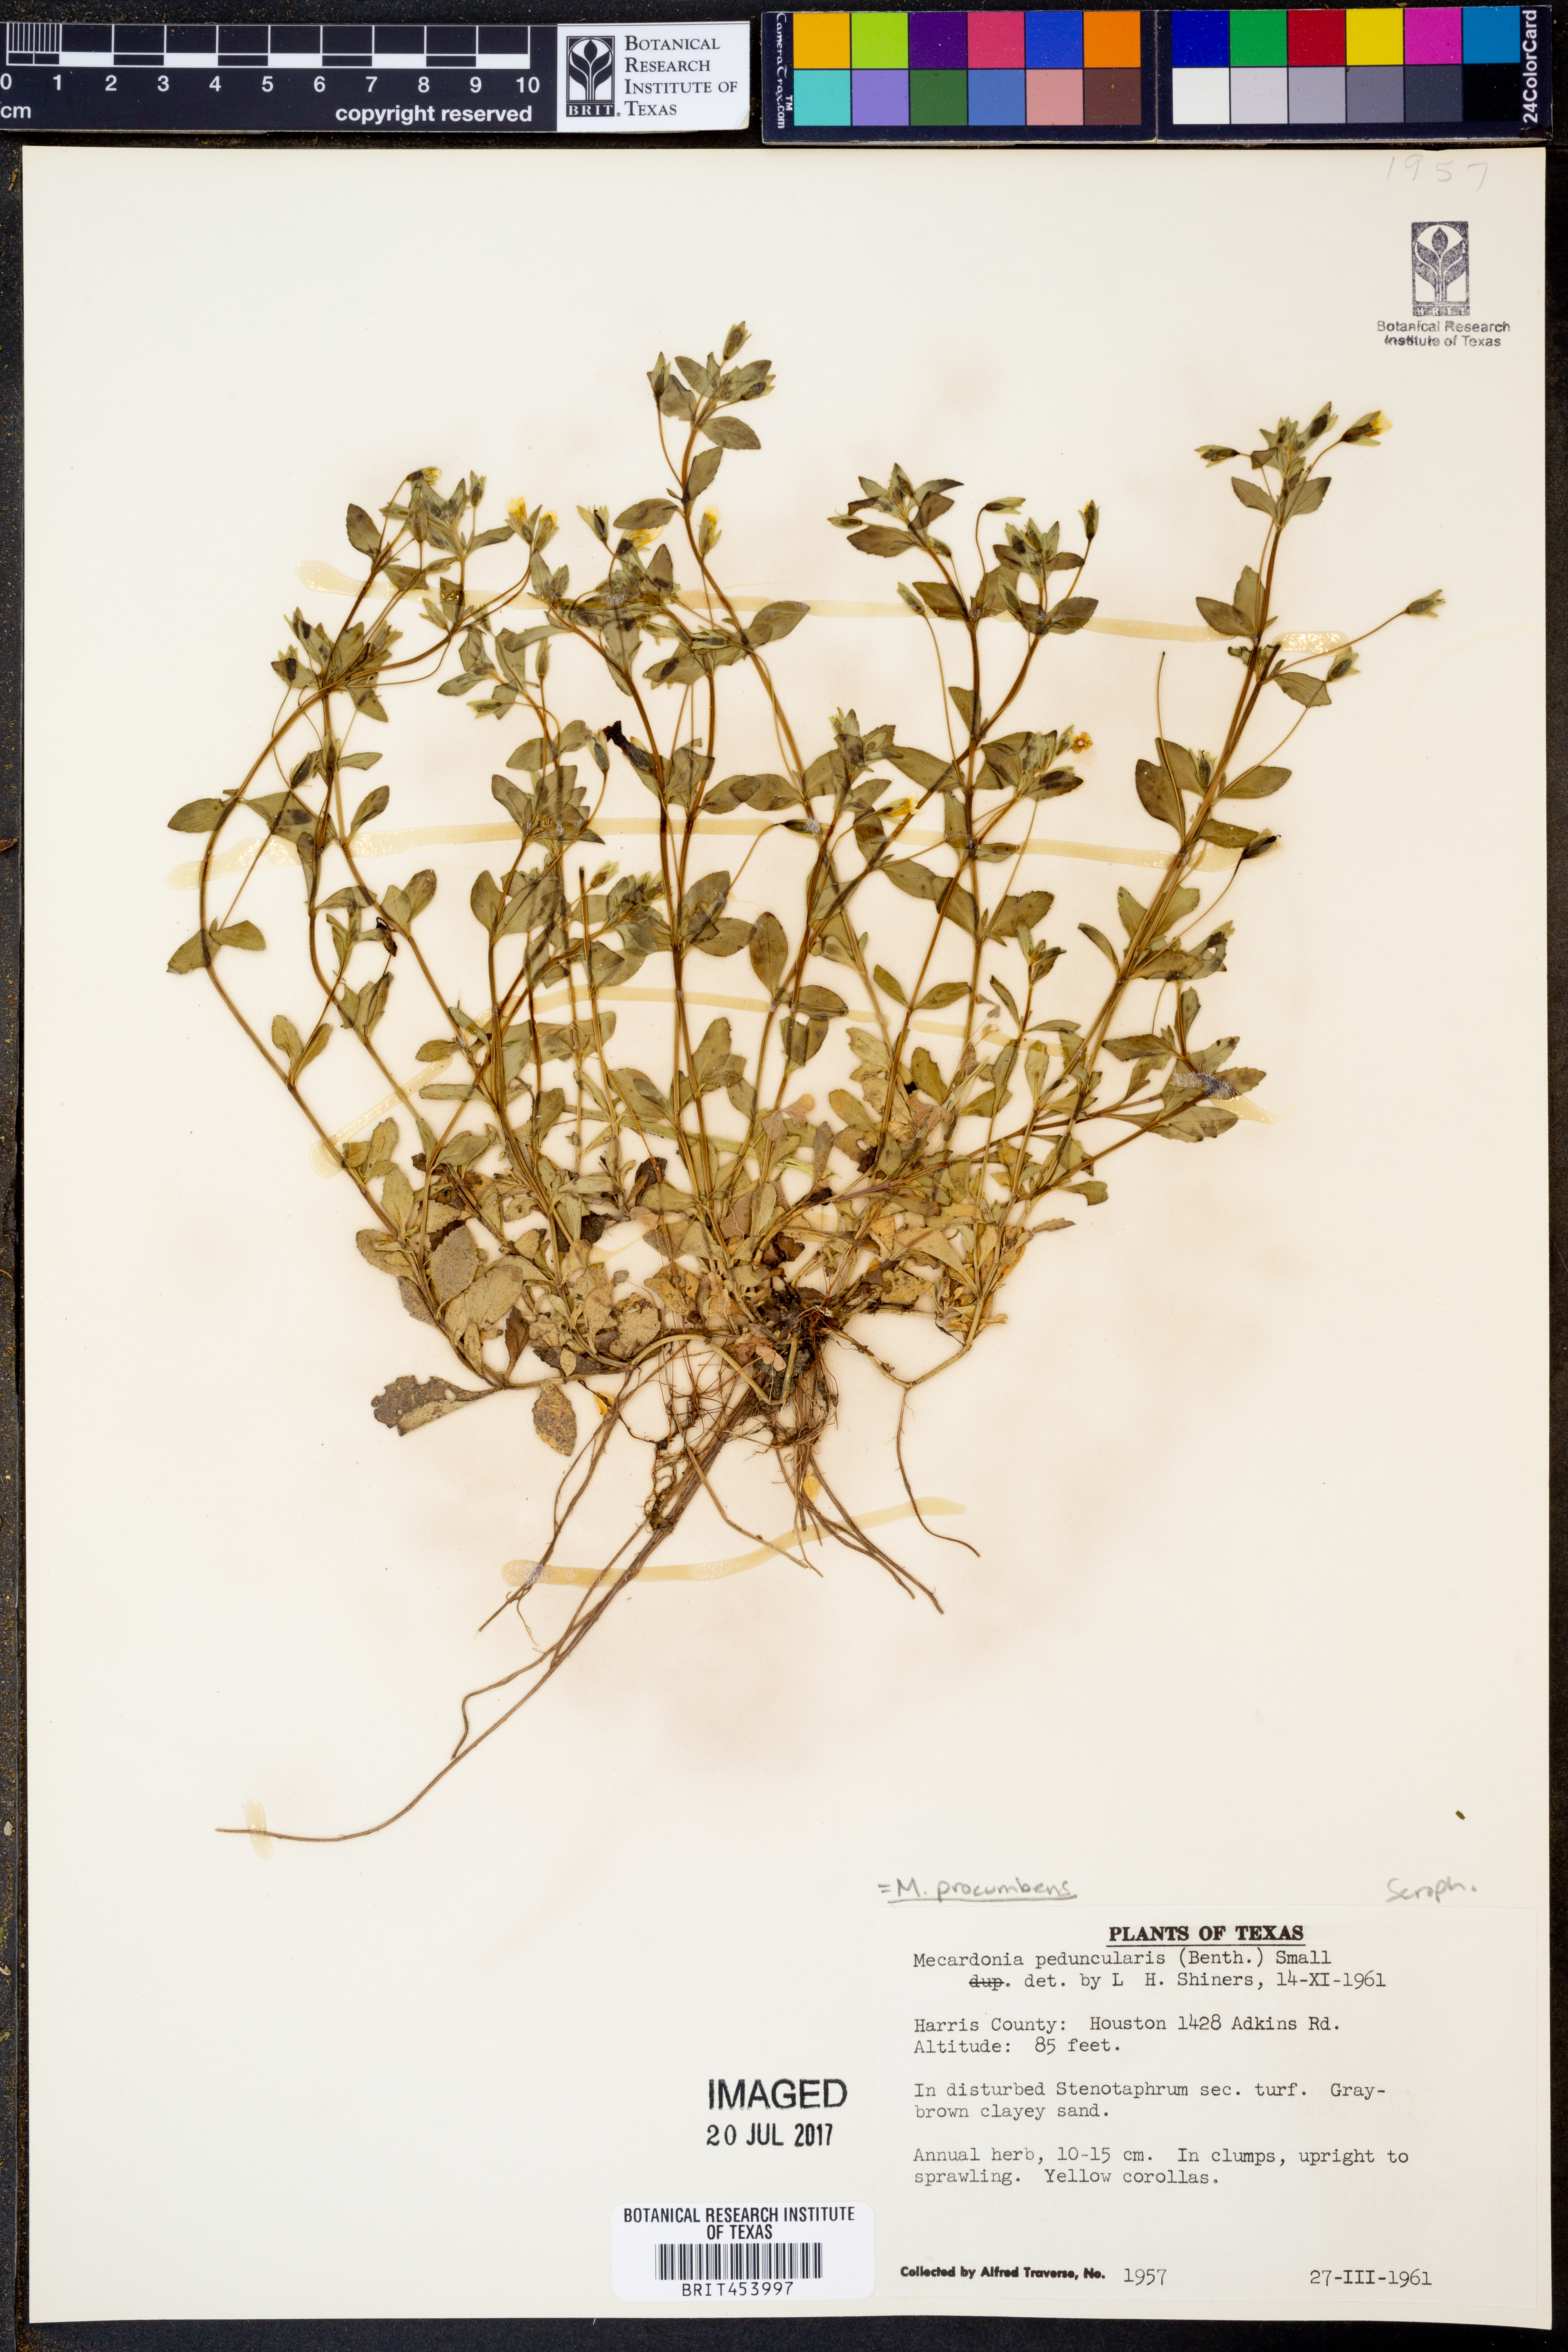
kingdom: Plantae
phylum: Tracheophyta
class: Magnoliopsida
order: Lamiales
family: Plantaginaceae
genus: Mecardonia
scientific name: Mecardonia procumbens
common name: Baby jump-up
